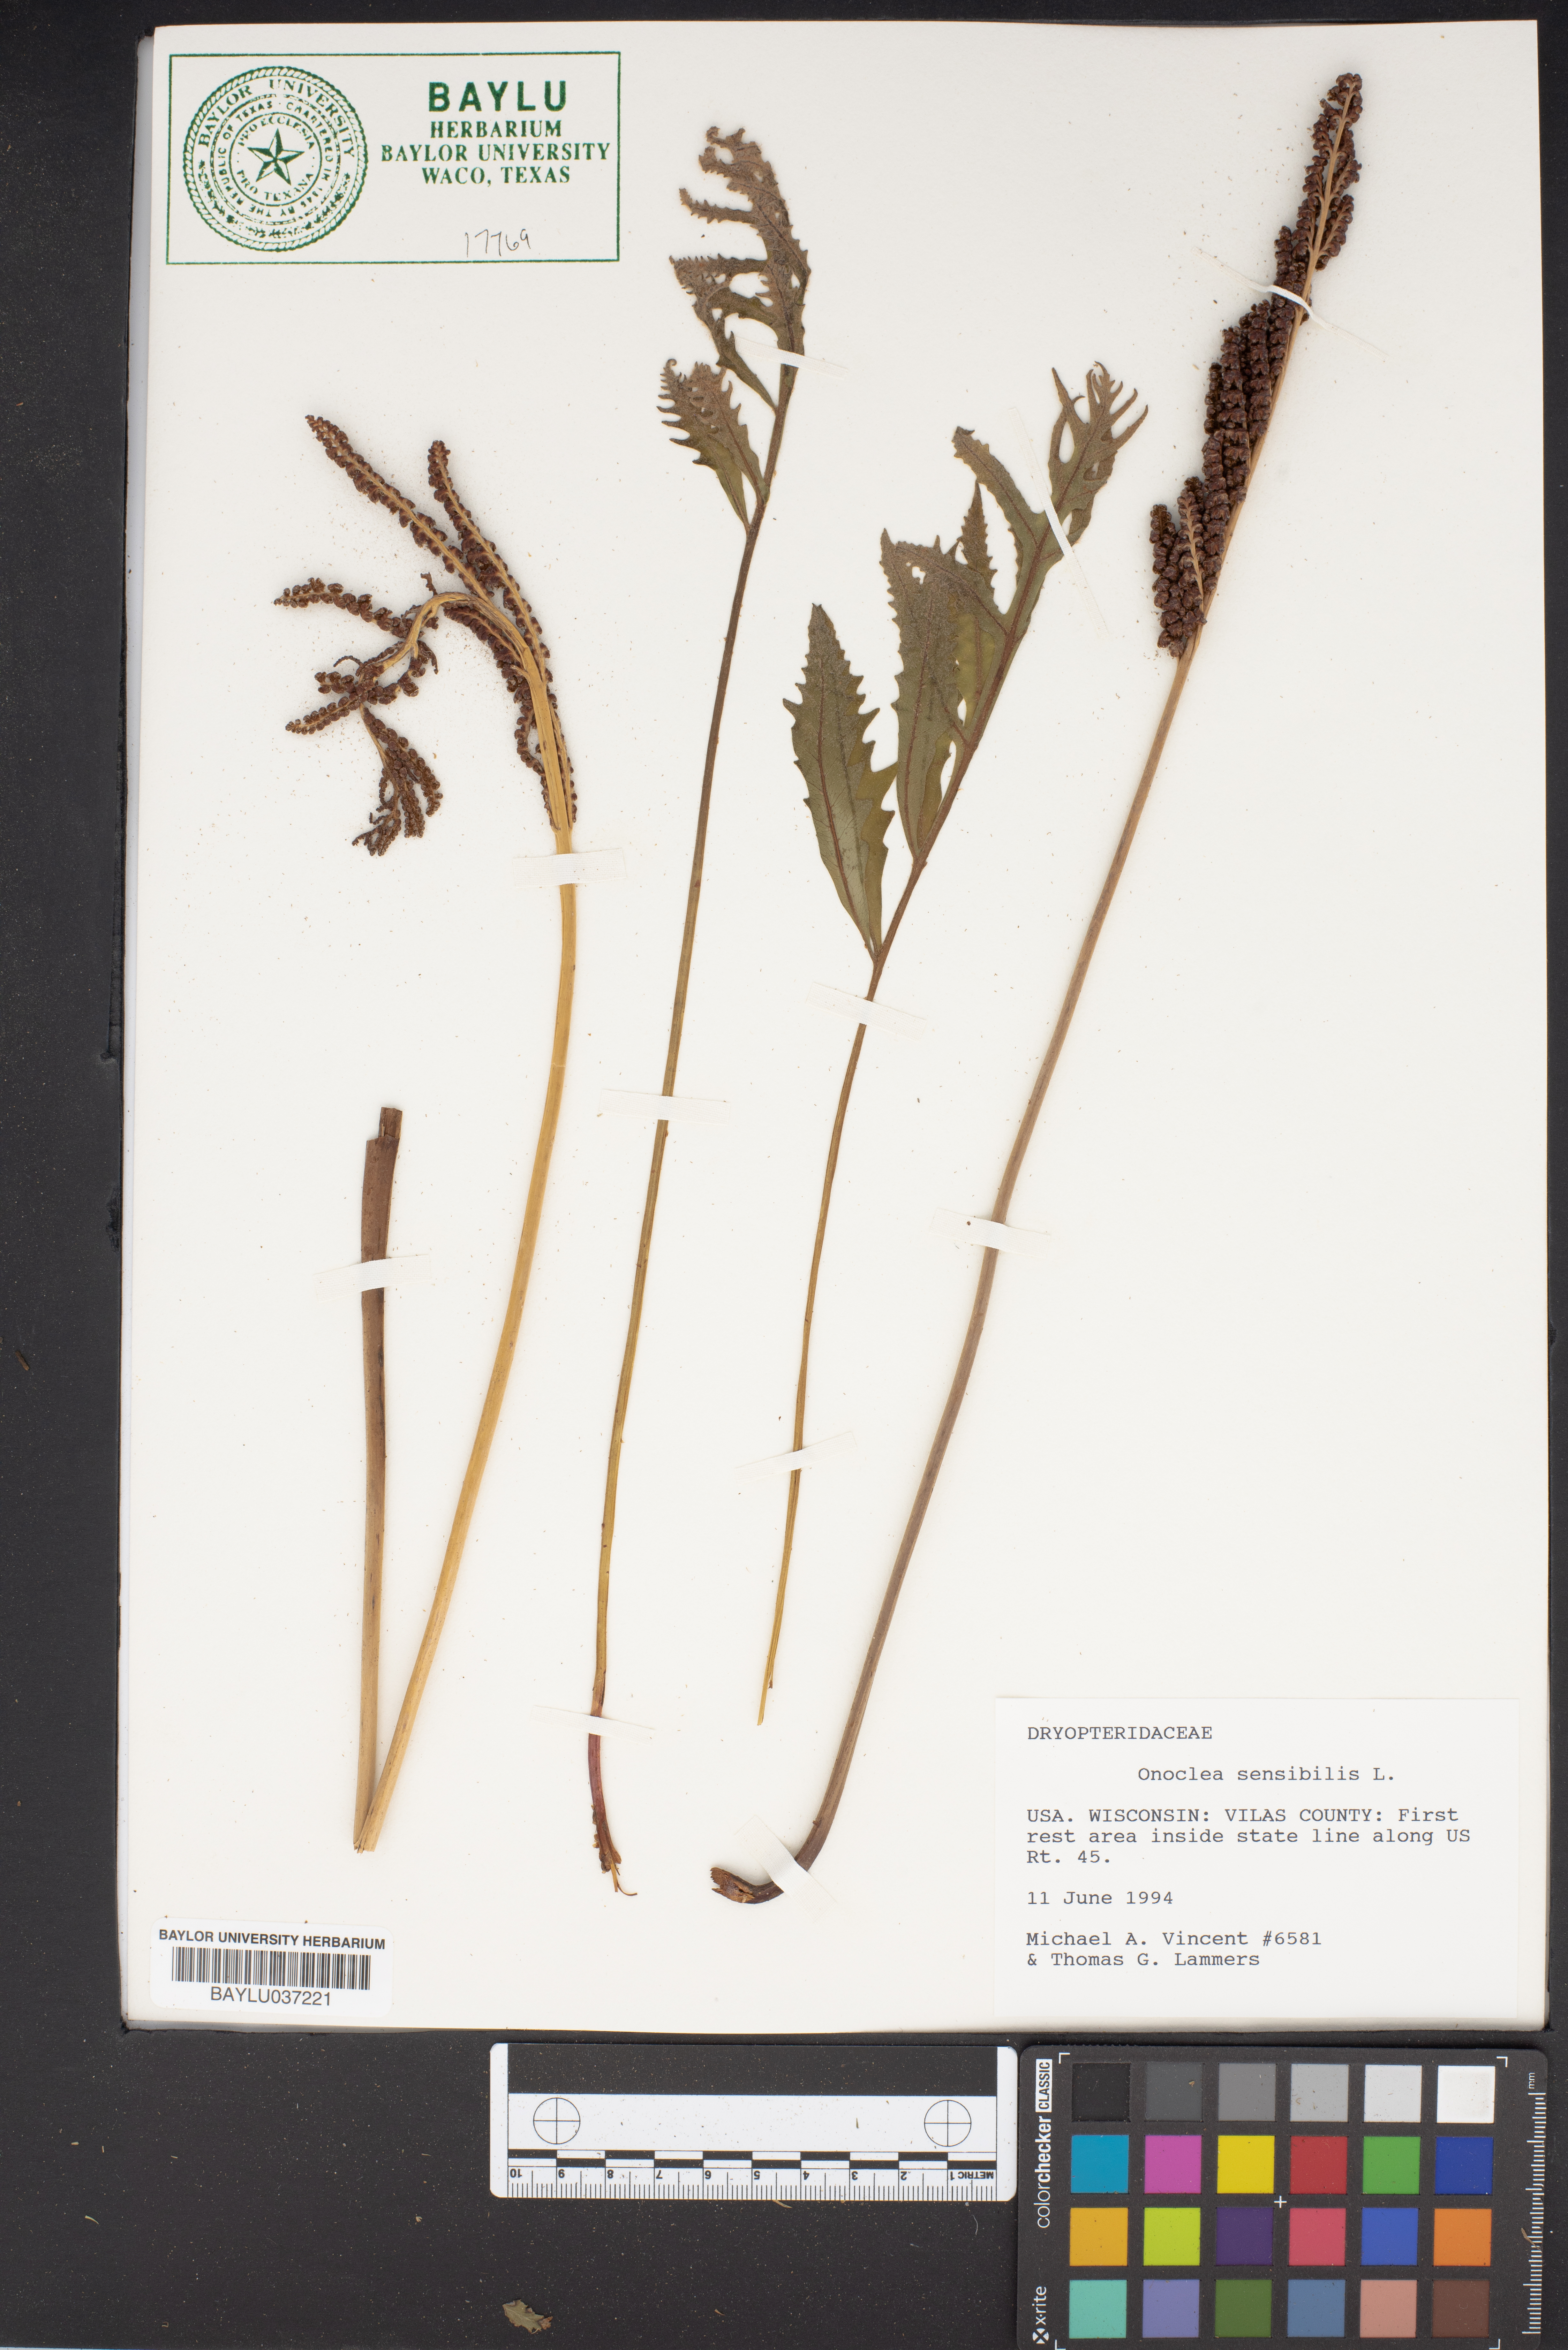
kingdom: Plantae
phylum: Tracheophyta
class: Polypodiopsida
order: Polypodiales
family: Onocleaceae
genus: Onoclea
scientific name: Onoclea sensibilis
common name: Sensitive fern
